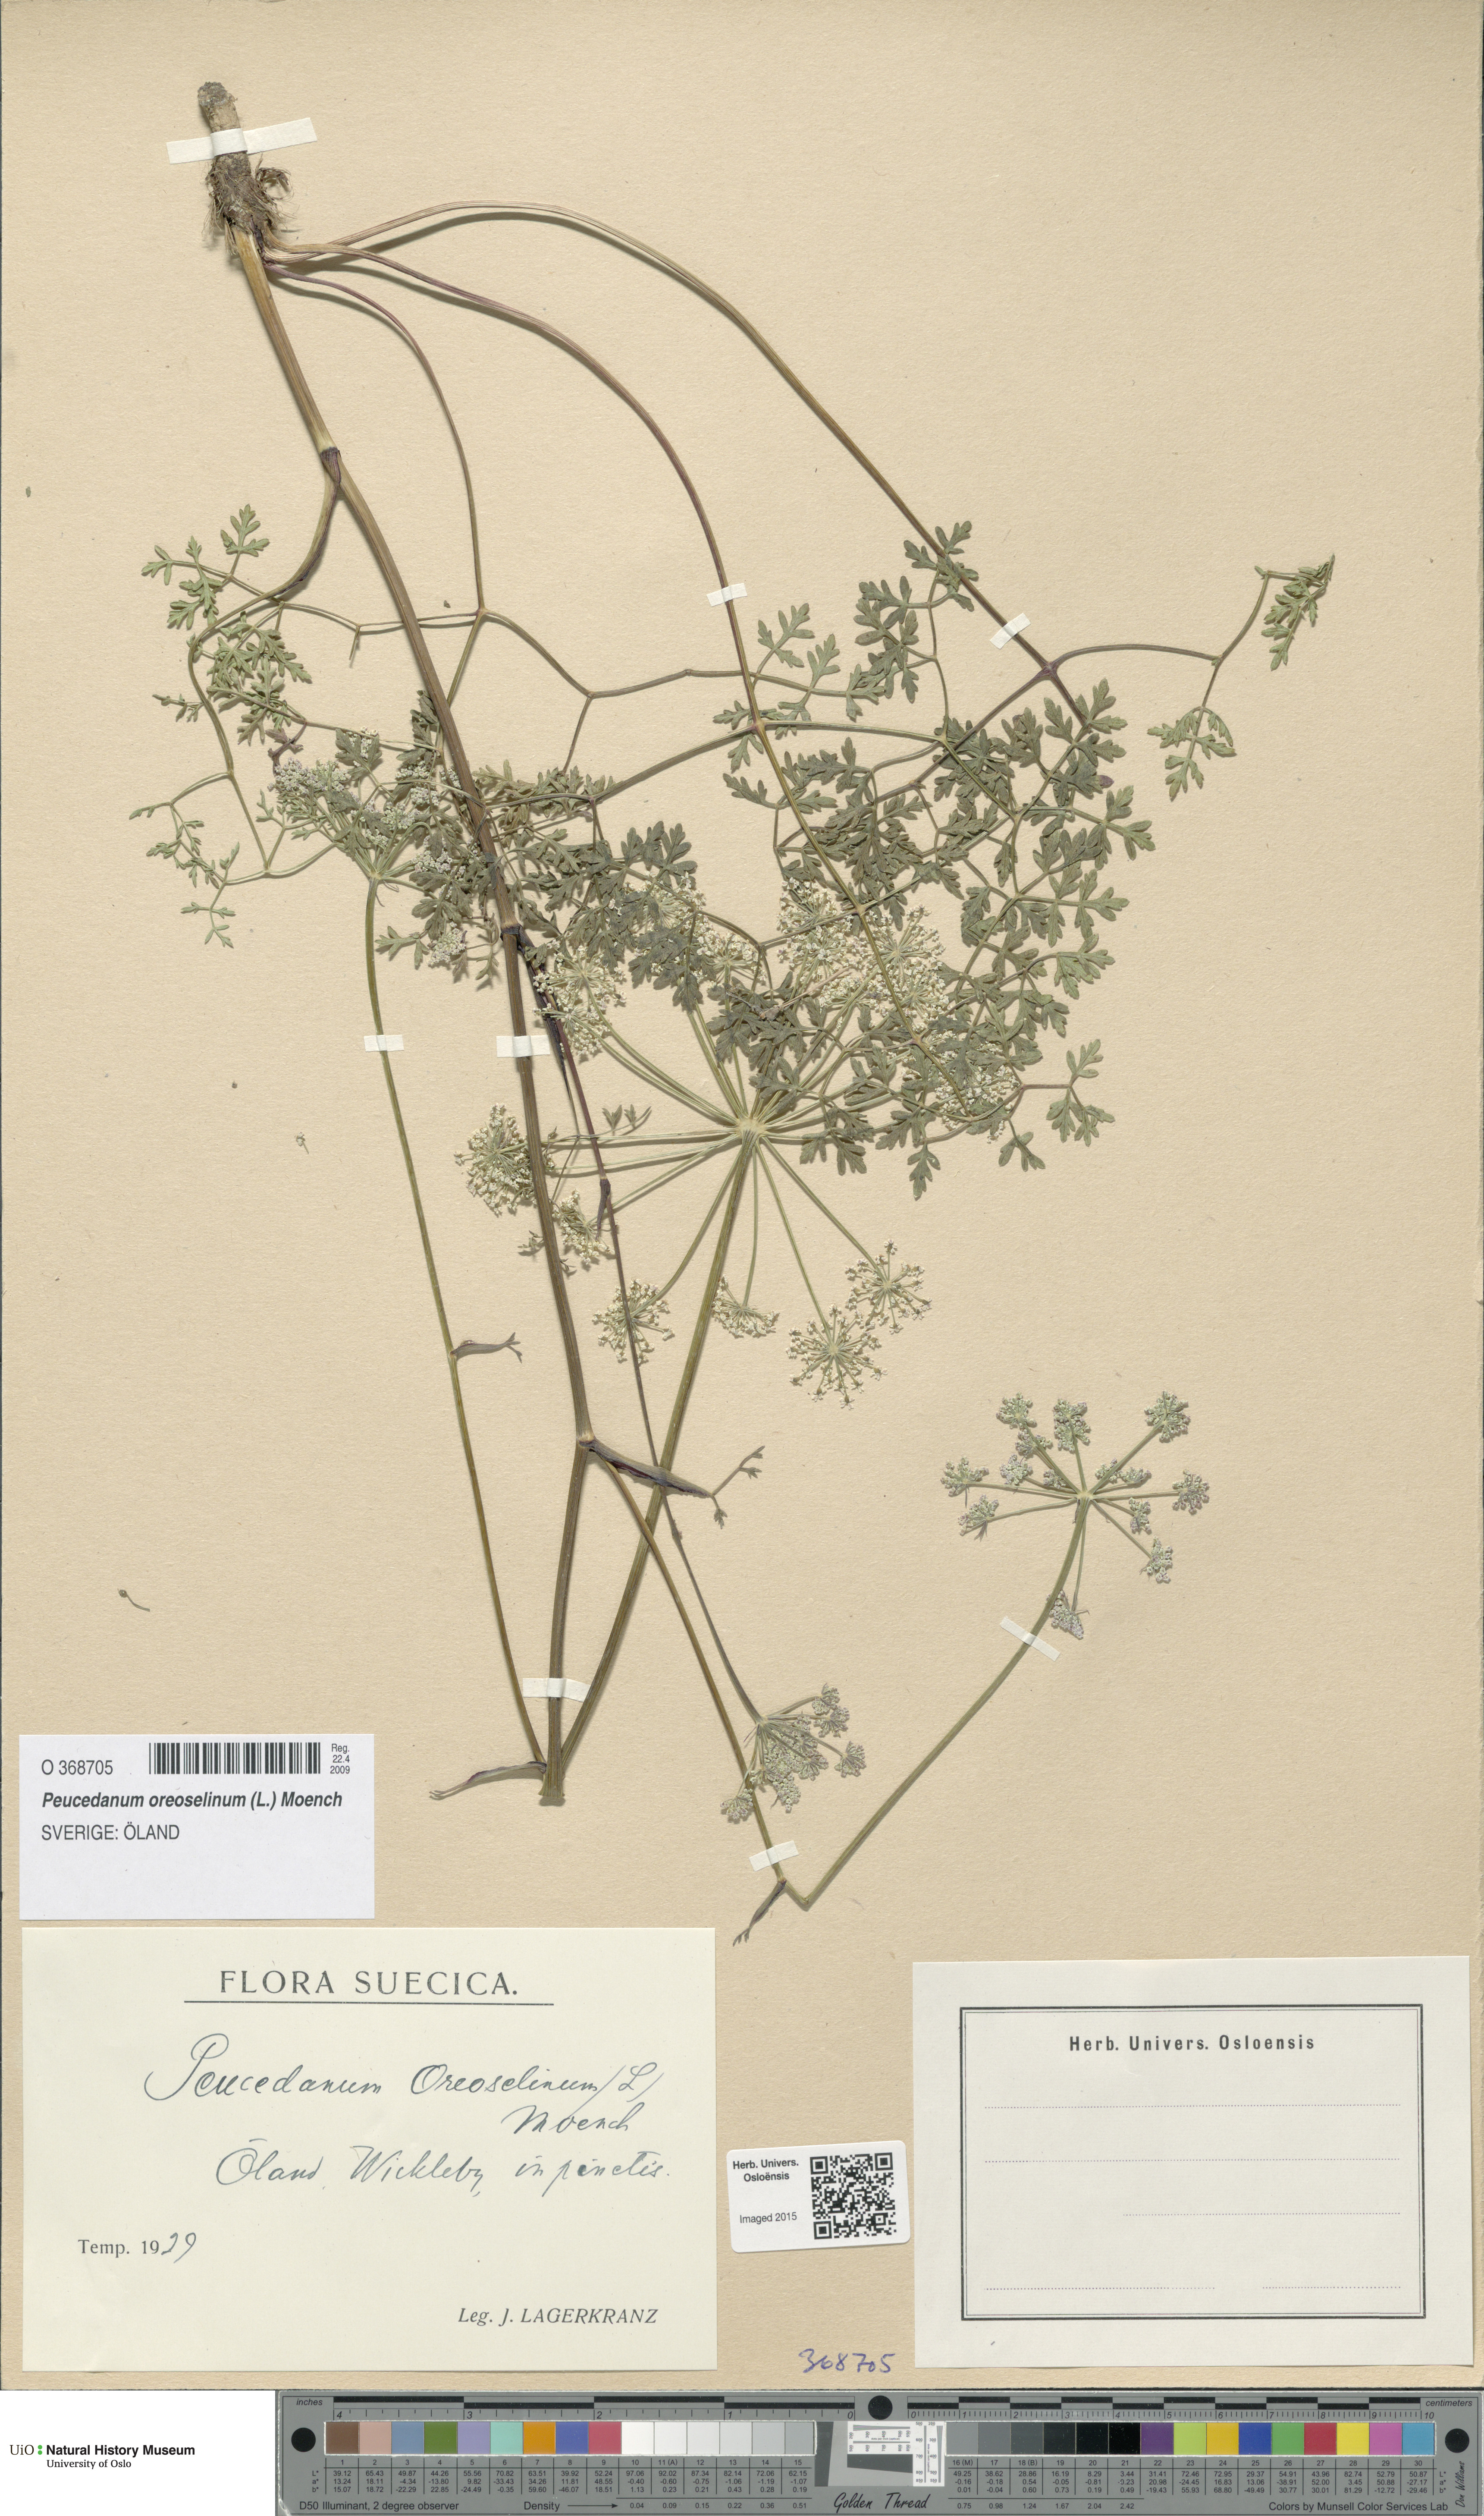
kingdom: Plantae
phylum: Tracheophyta
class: Magnoliopsida
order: Apiales
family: Apiaceae
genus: Oreoselinum
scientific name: Oreoselinum nigrum
